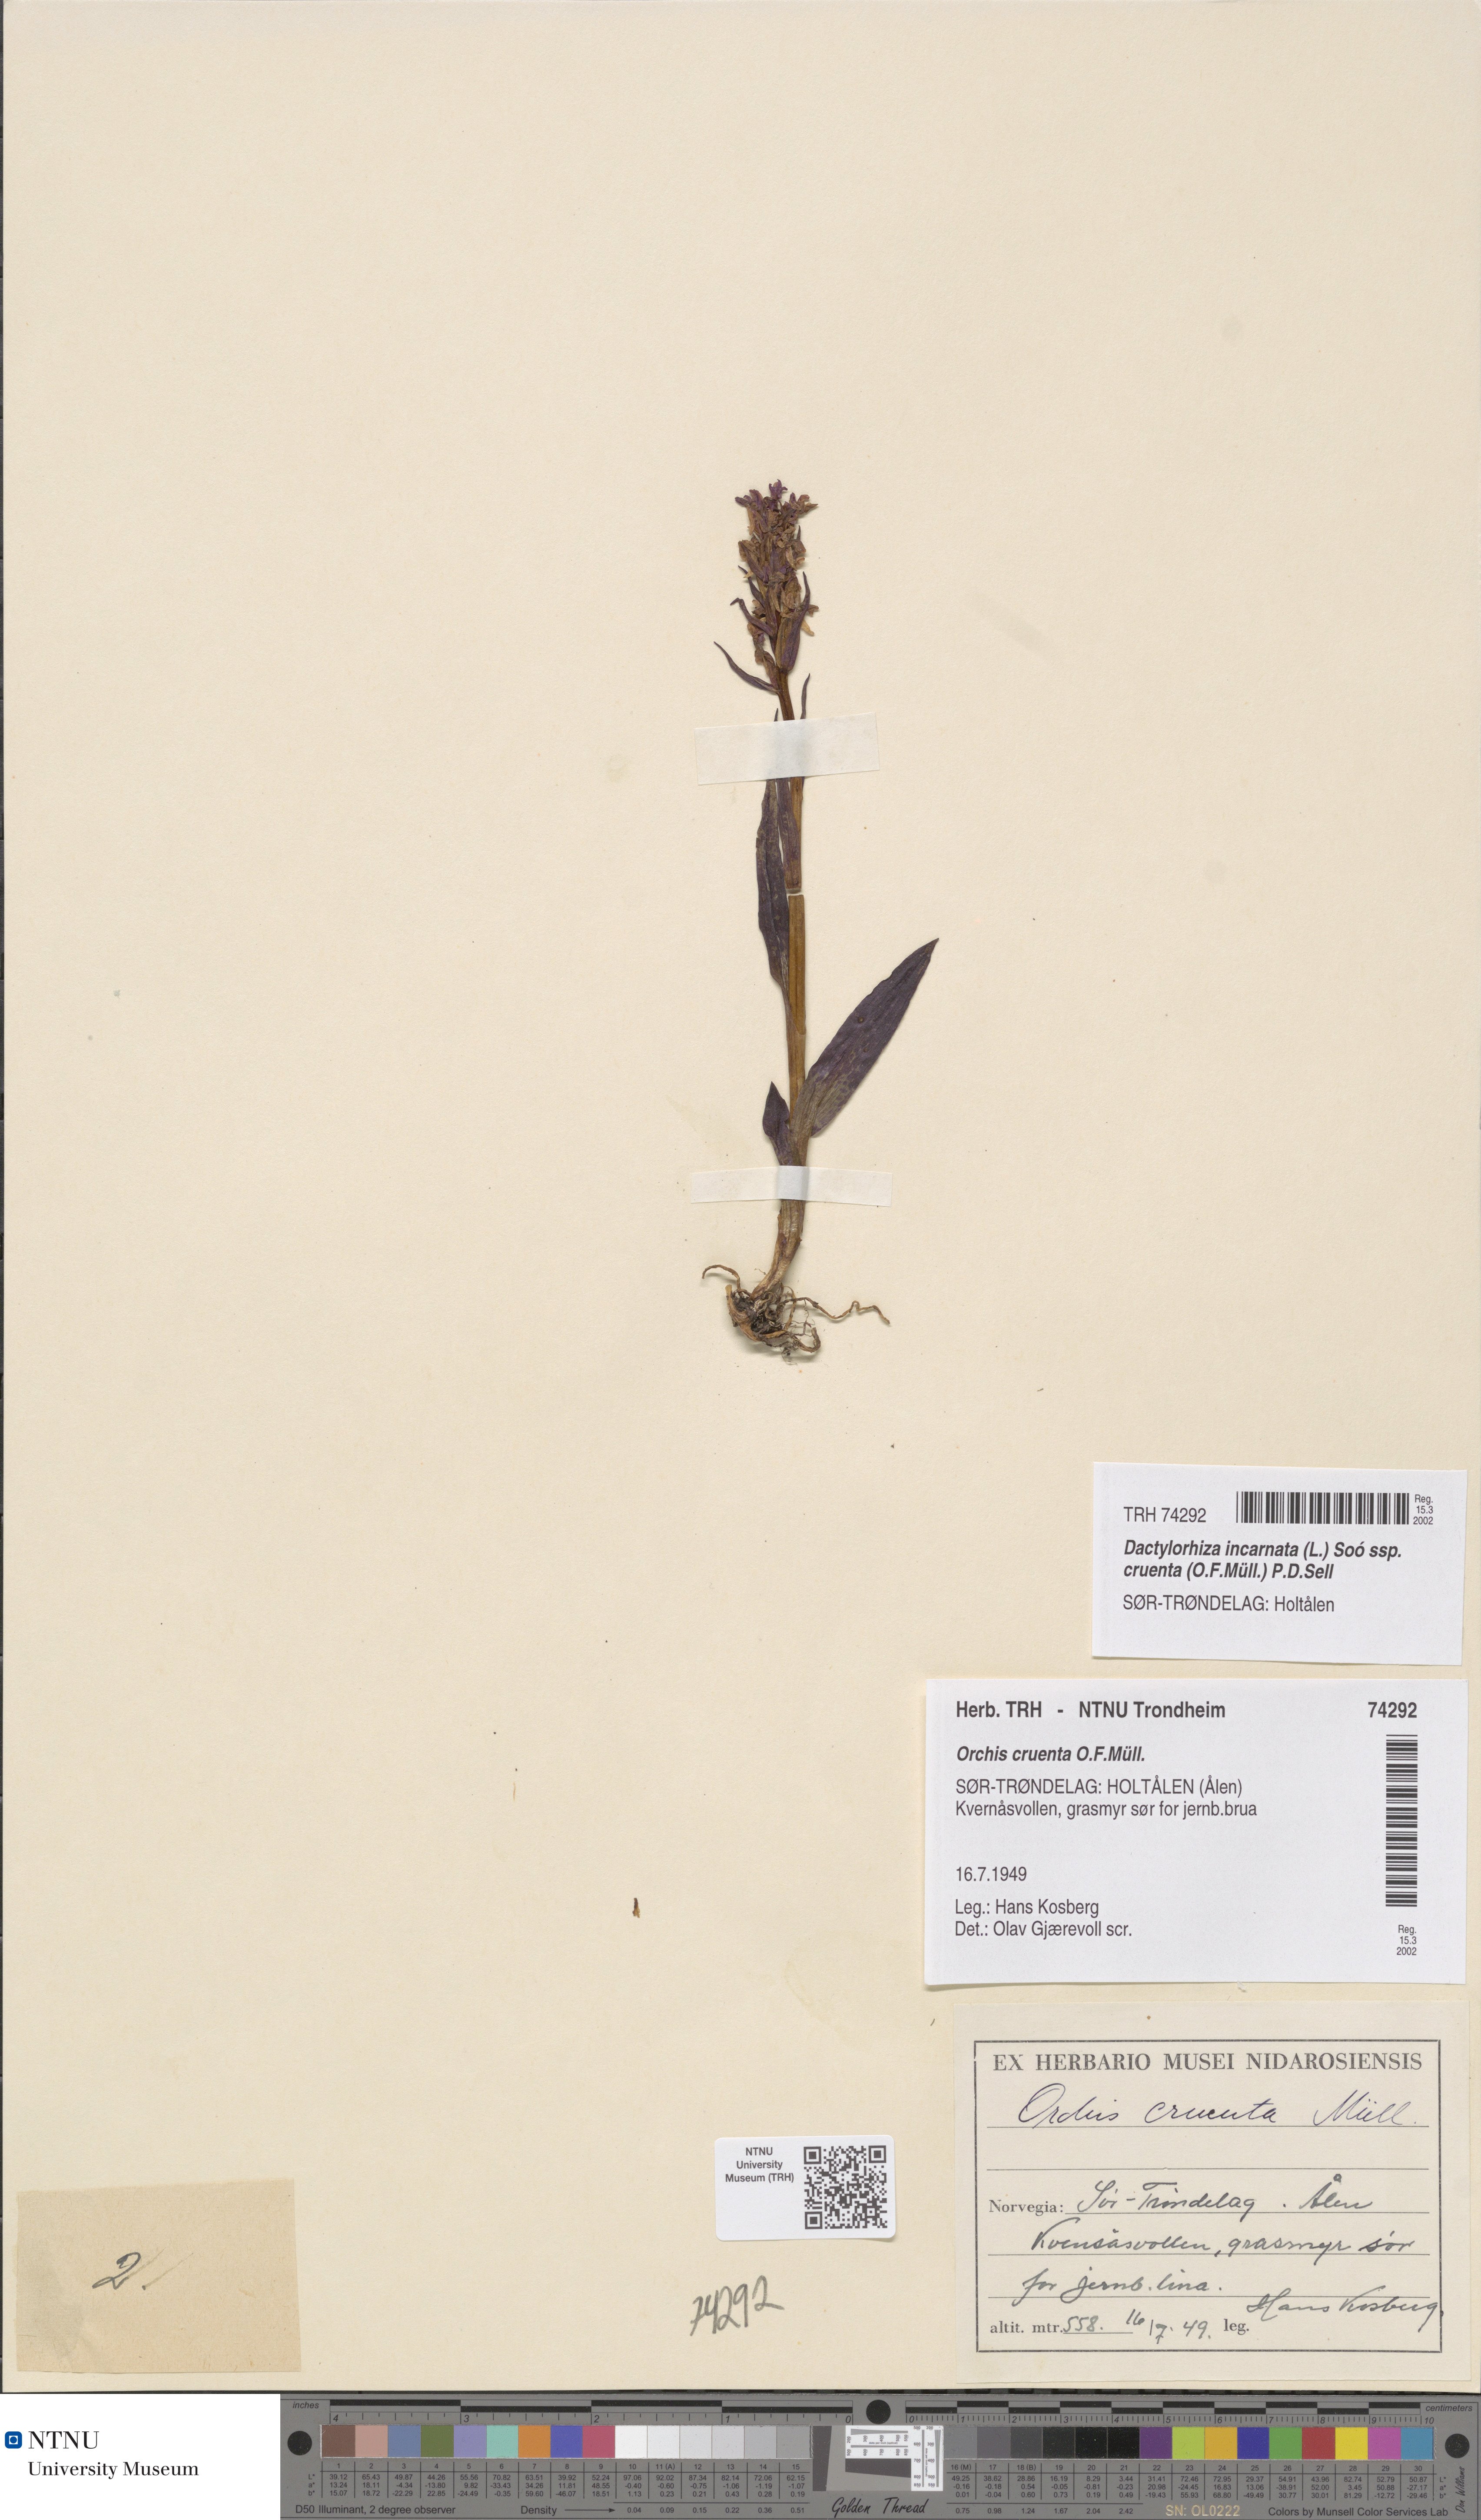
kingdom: Plantae
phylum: Tracheophyta
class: Liliopsida
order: Asparagales
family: Orchidaceae
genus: Dactylorhiza
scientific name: Dactylorhiza incarnata
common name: Early marsh-orchid
